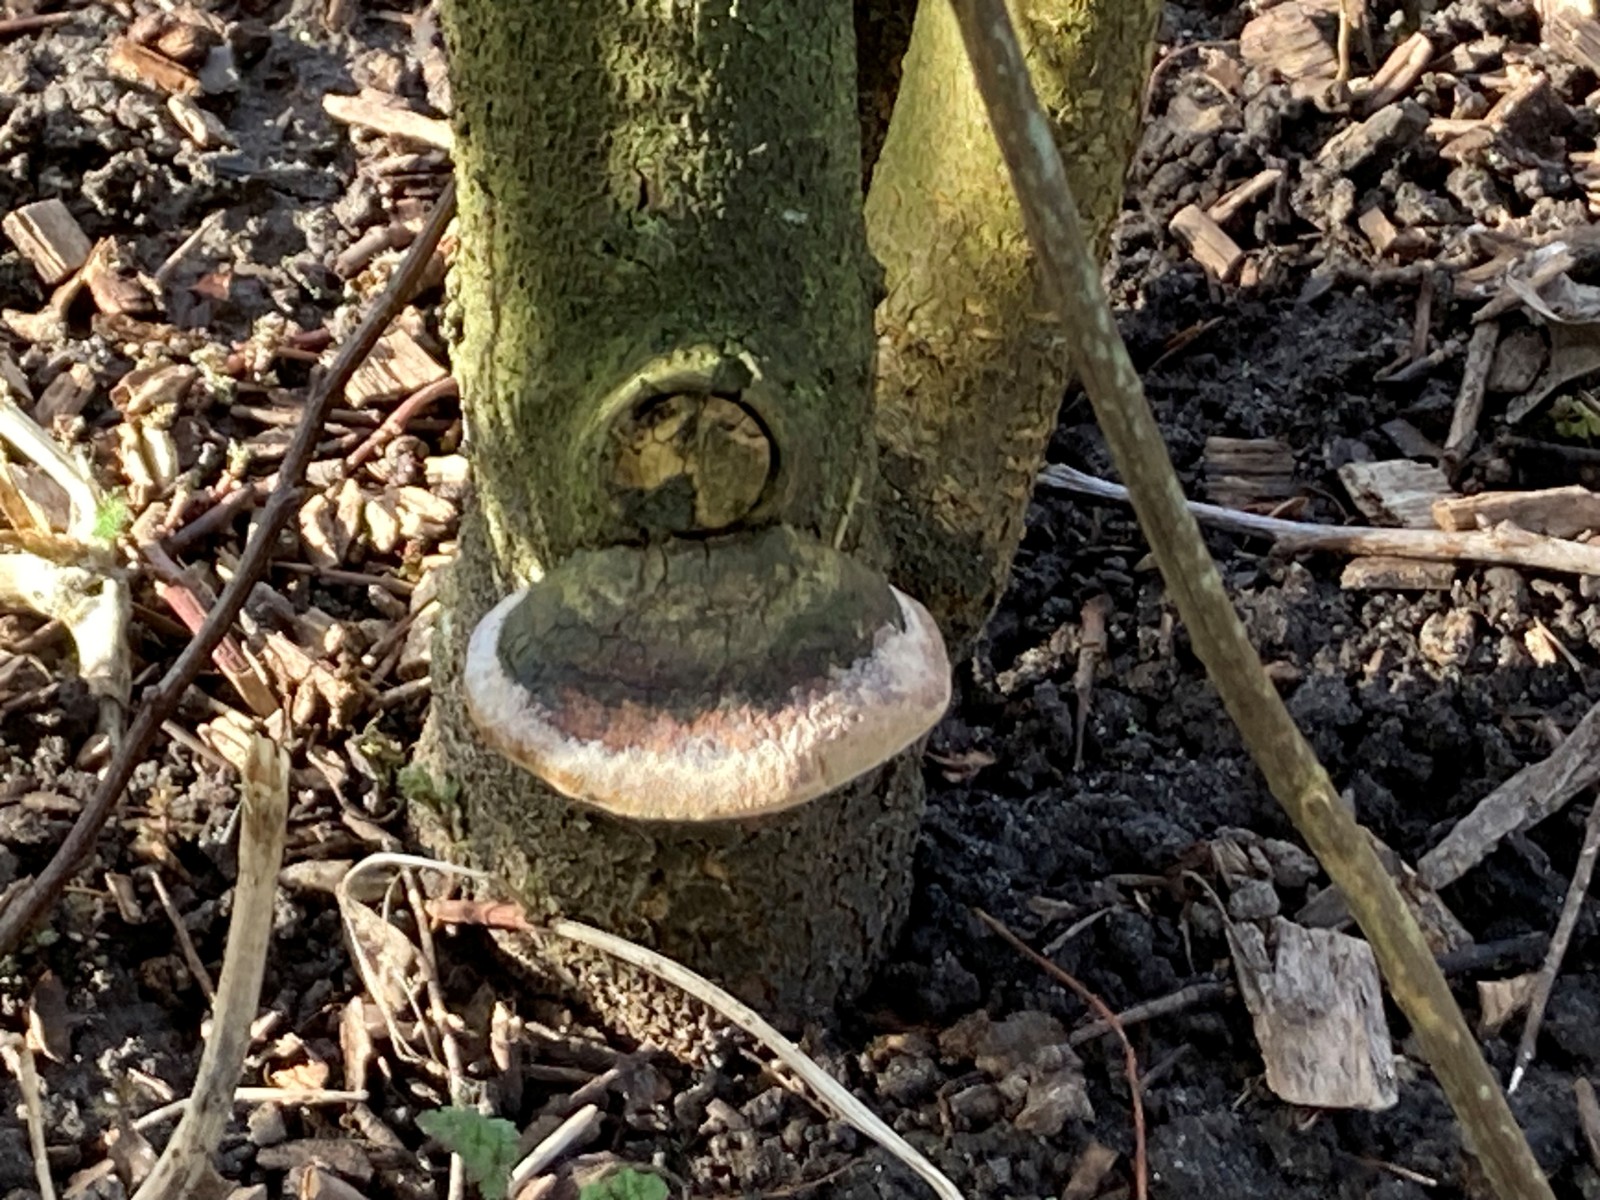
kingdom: Fungi
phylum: Basidiomycota
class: Agaricomycetes
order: Hymenochaetales
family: Hymenochaetaceae
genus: Phellinus
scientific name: Phellinus pomaceus
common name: blomme-ildporesvamp
